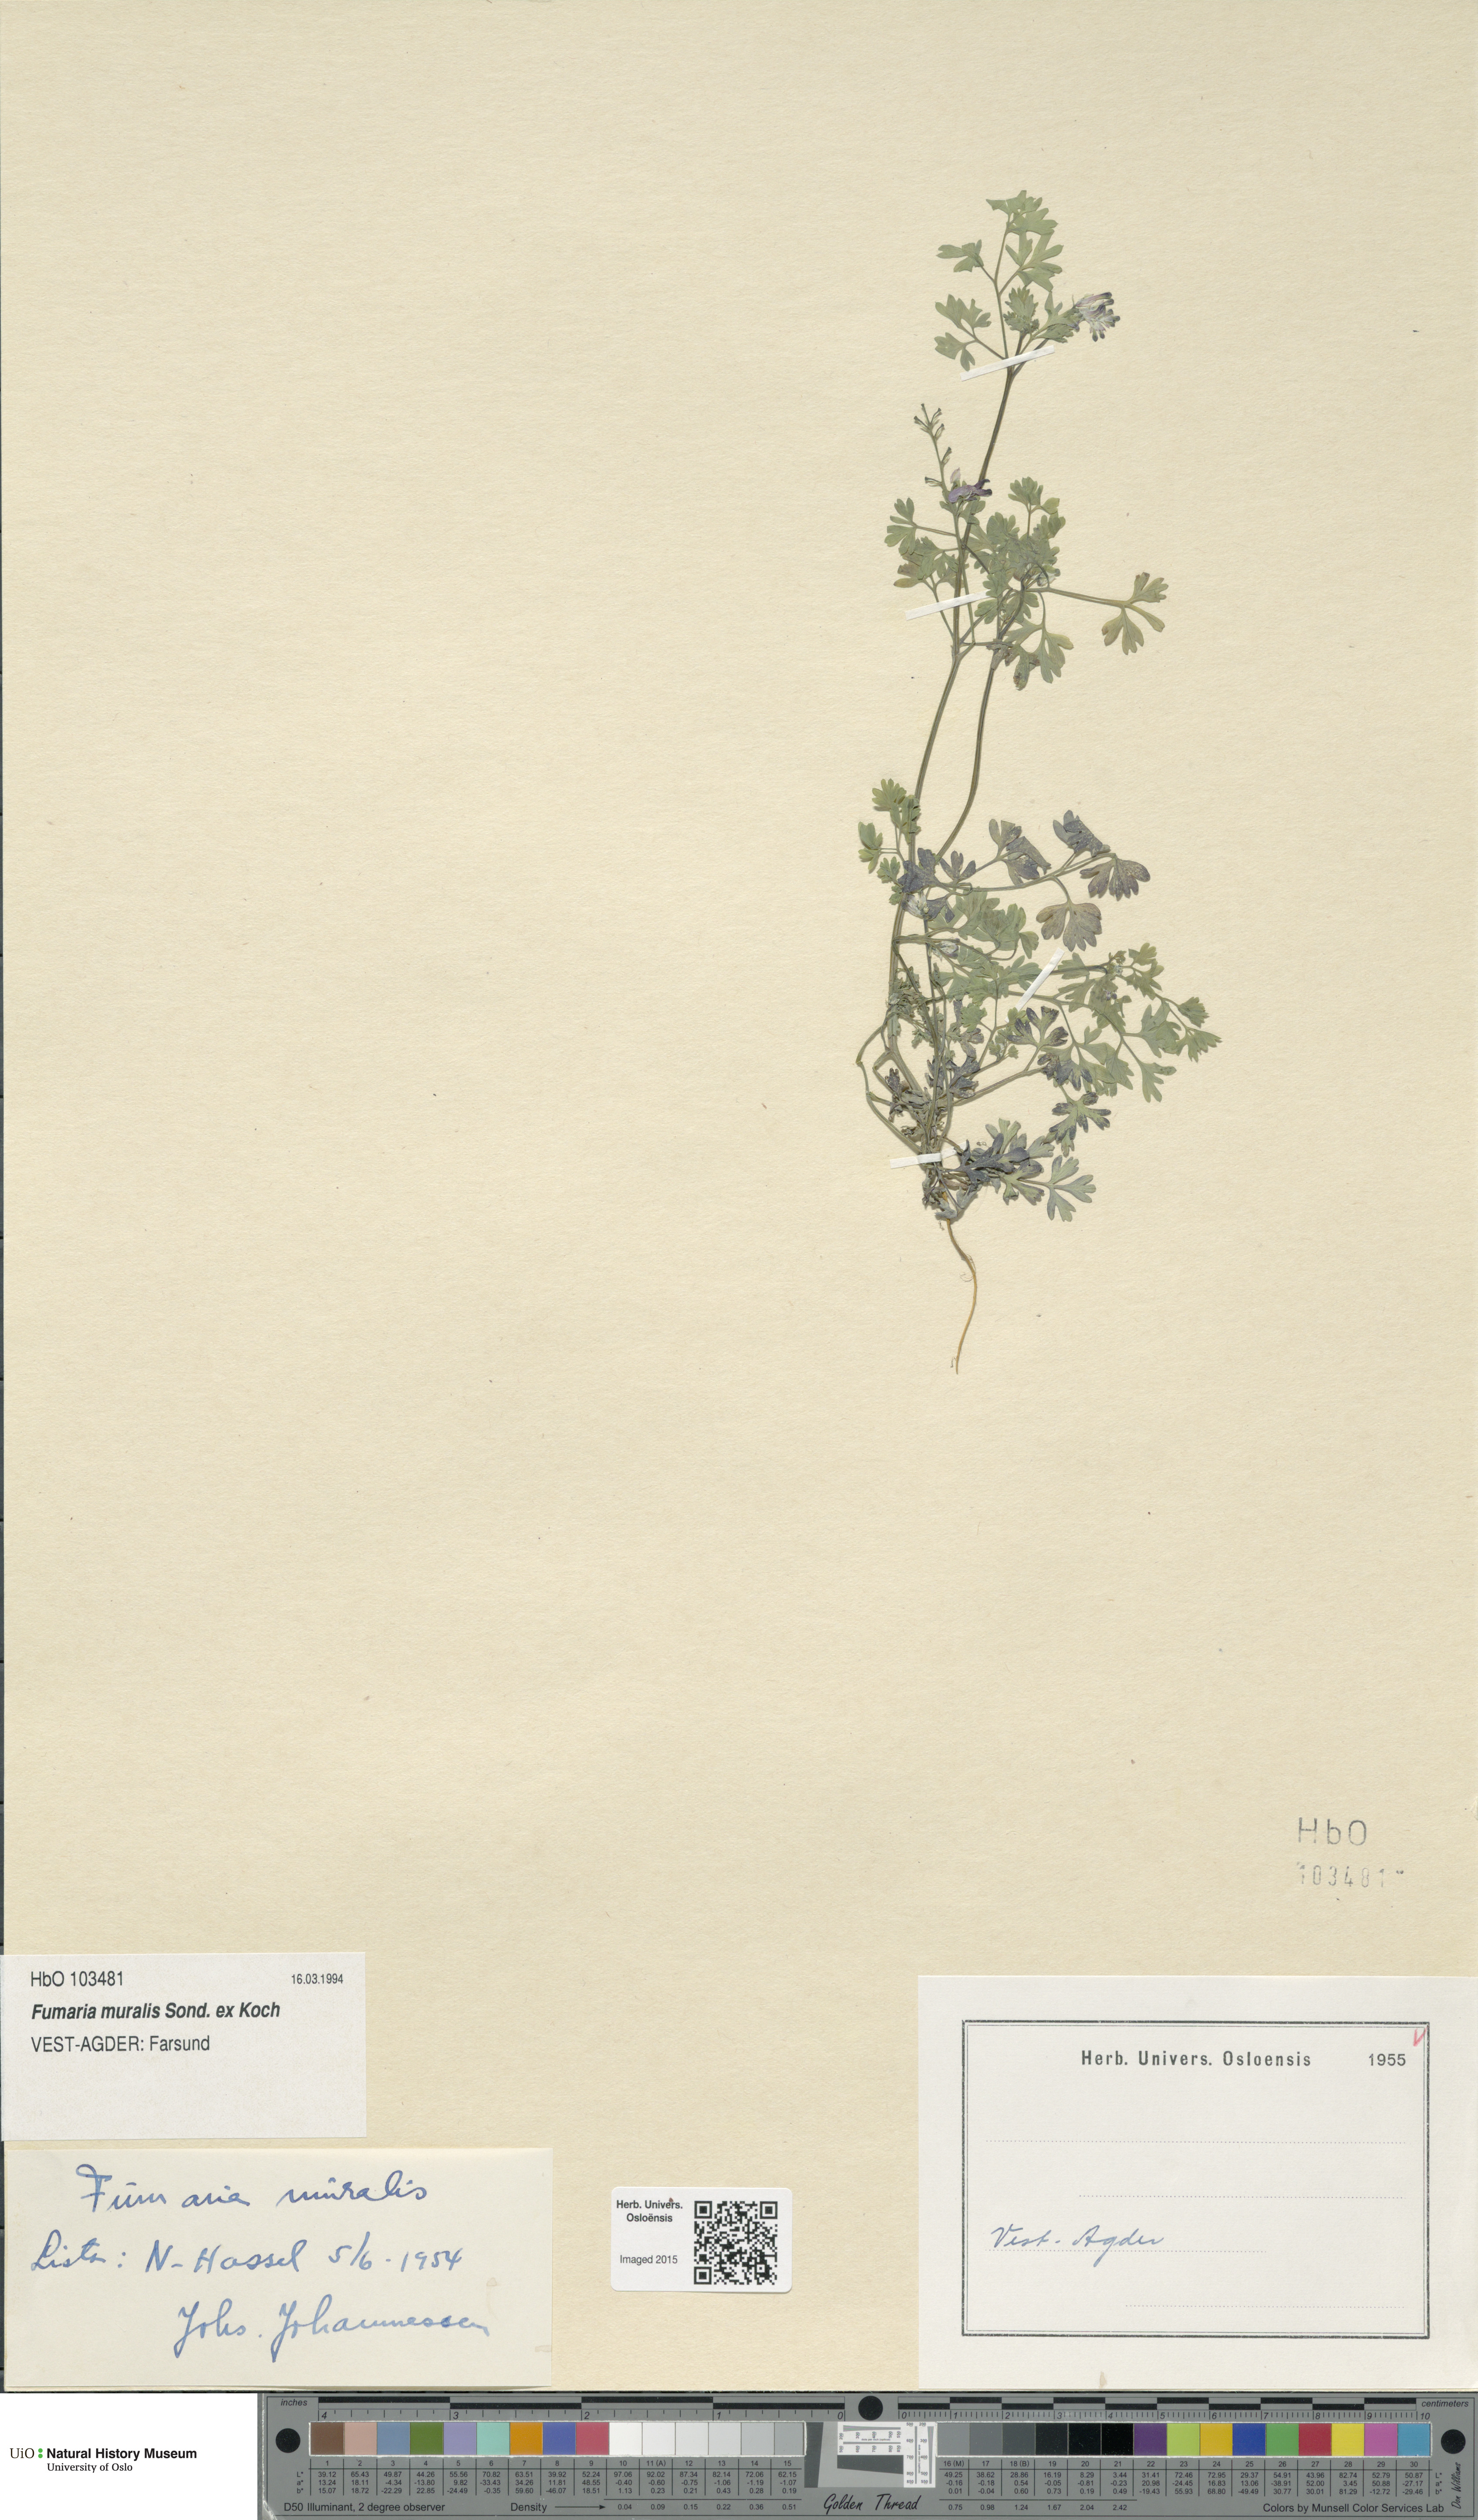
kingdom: Plantae
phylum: Tracheophyta
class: Magnoliopsida
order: Ranunculales
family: Papaveraceae
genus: Fumaria
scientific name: Fumaria muralis
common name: Common ramping-fumitory
